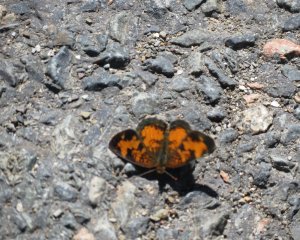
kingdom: Animalia
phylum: Arthropoda
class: Insecta
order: Lepidoptera
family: Nymphalidae
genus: Phyciodes
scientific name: Phyciodes tharos
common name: Northern Crescent
